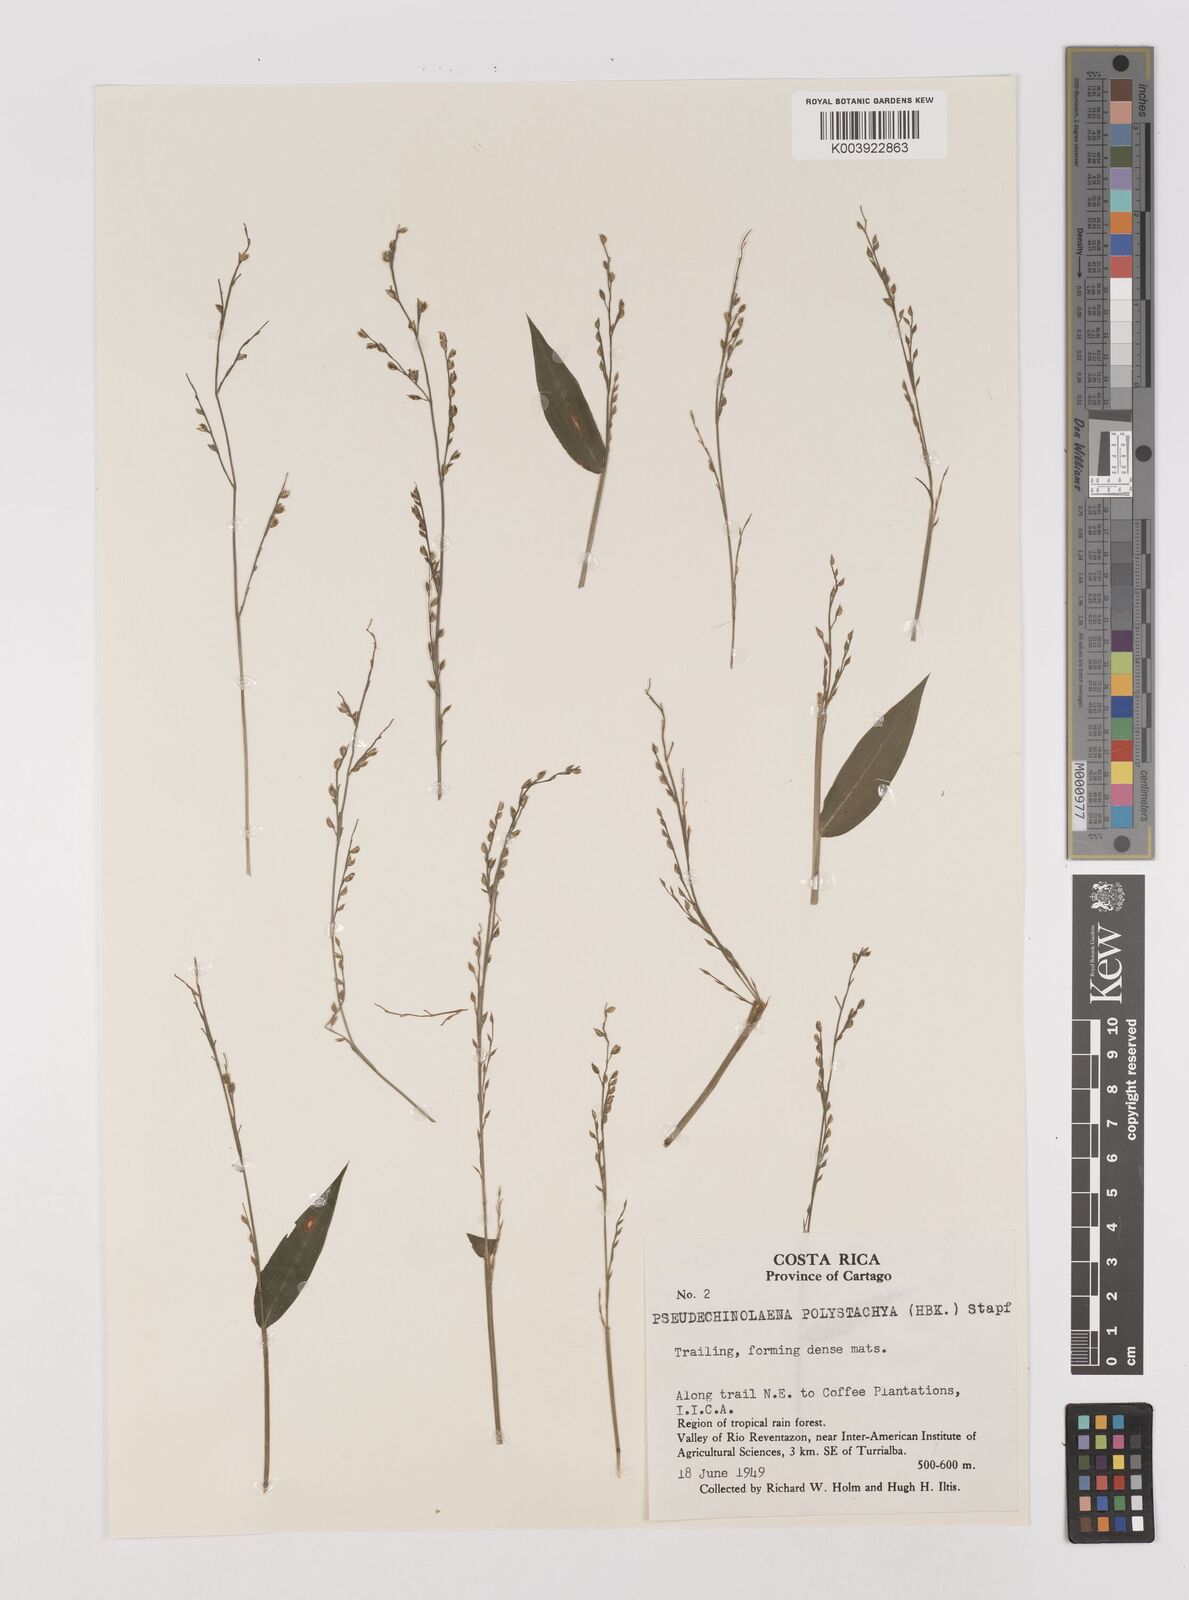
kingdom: Plantae
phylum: Tracheophyta
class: Liliopsida
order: Poales
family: Poaceae
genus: Pseudechinolaena
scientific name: Pseudechinolaena polystachya
